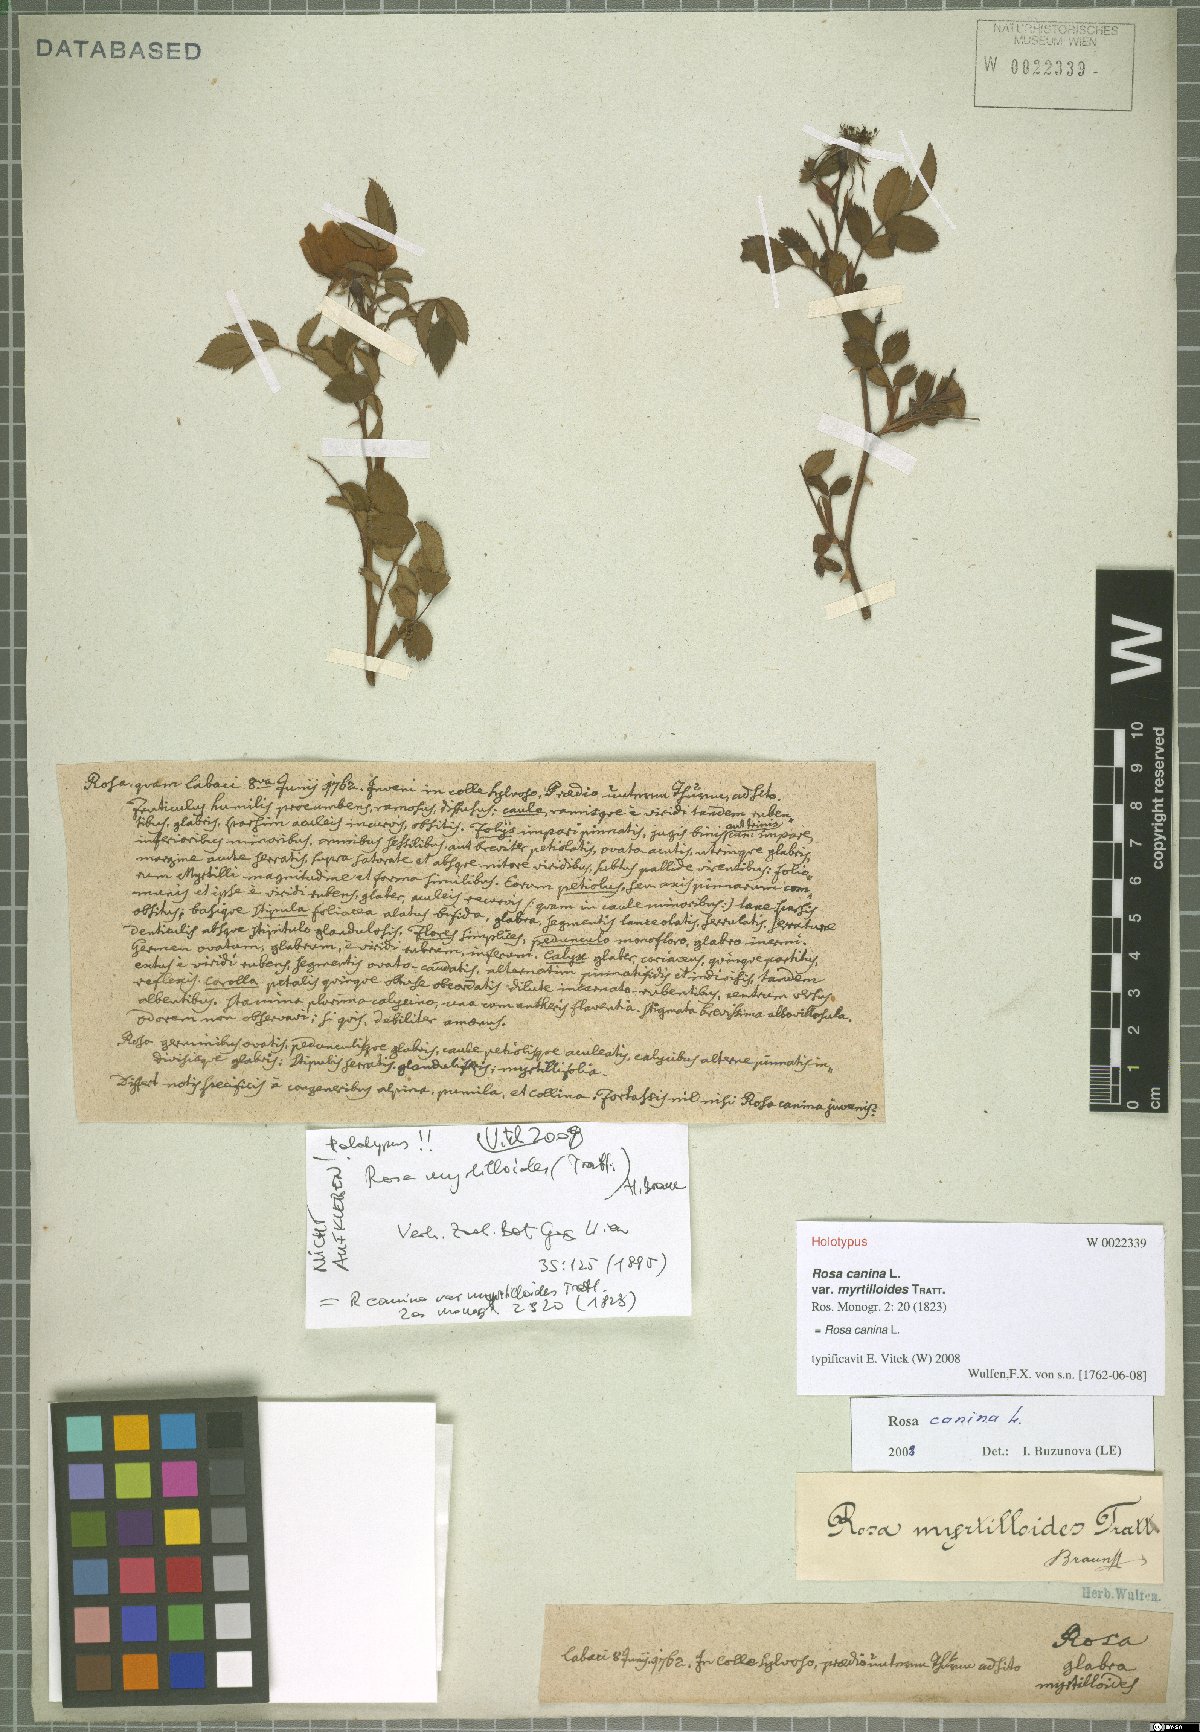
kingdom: Plantae
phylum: Tracheophyta
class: Magnoliopsida
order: Rosales
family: Rosaceae
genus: Rosa
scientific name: Rosa canina
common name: Dog rose
